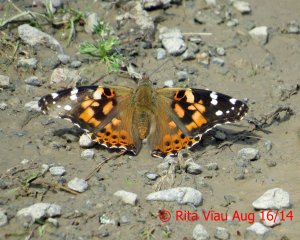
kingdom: Animalia
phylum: Arthropoda
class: Insecta
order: Lepidoptera
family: Nymphalidae
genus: Vanessa
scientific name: Vanessa cardui
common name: Painted Lady
